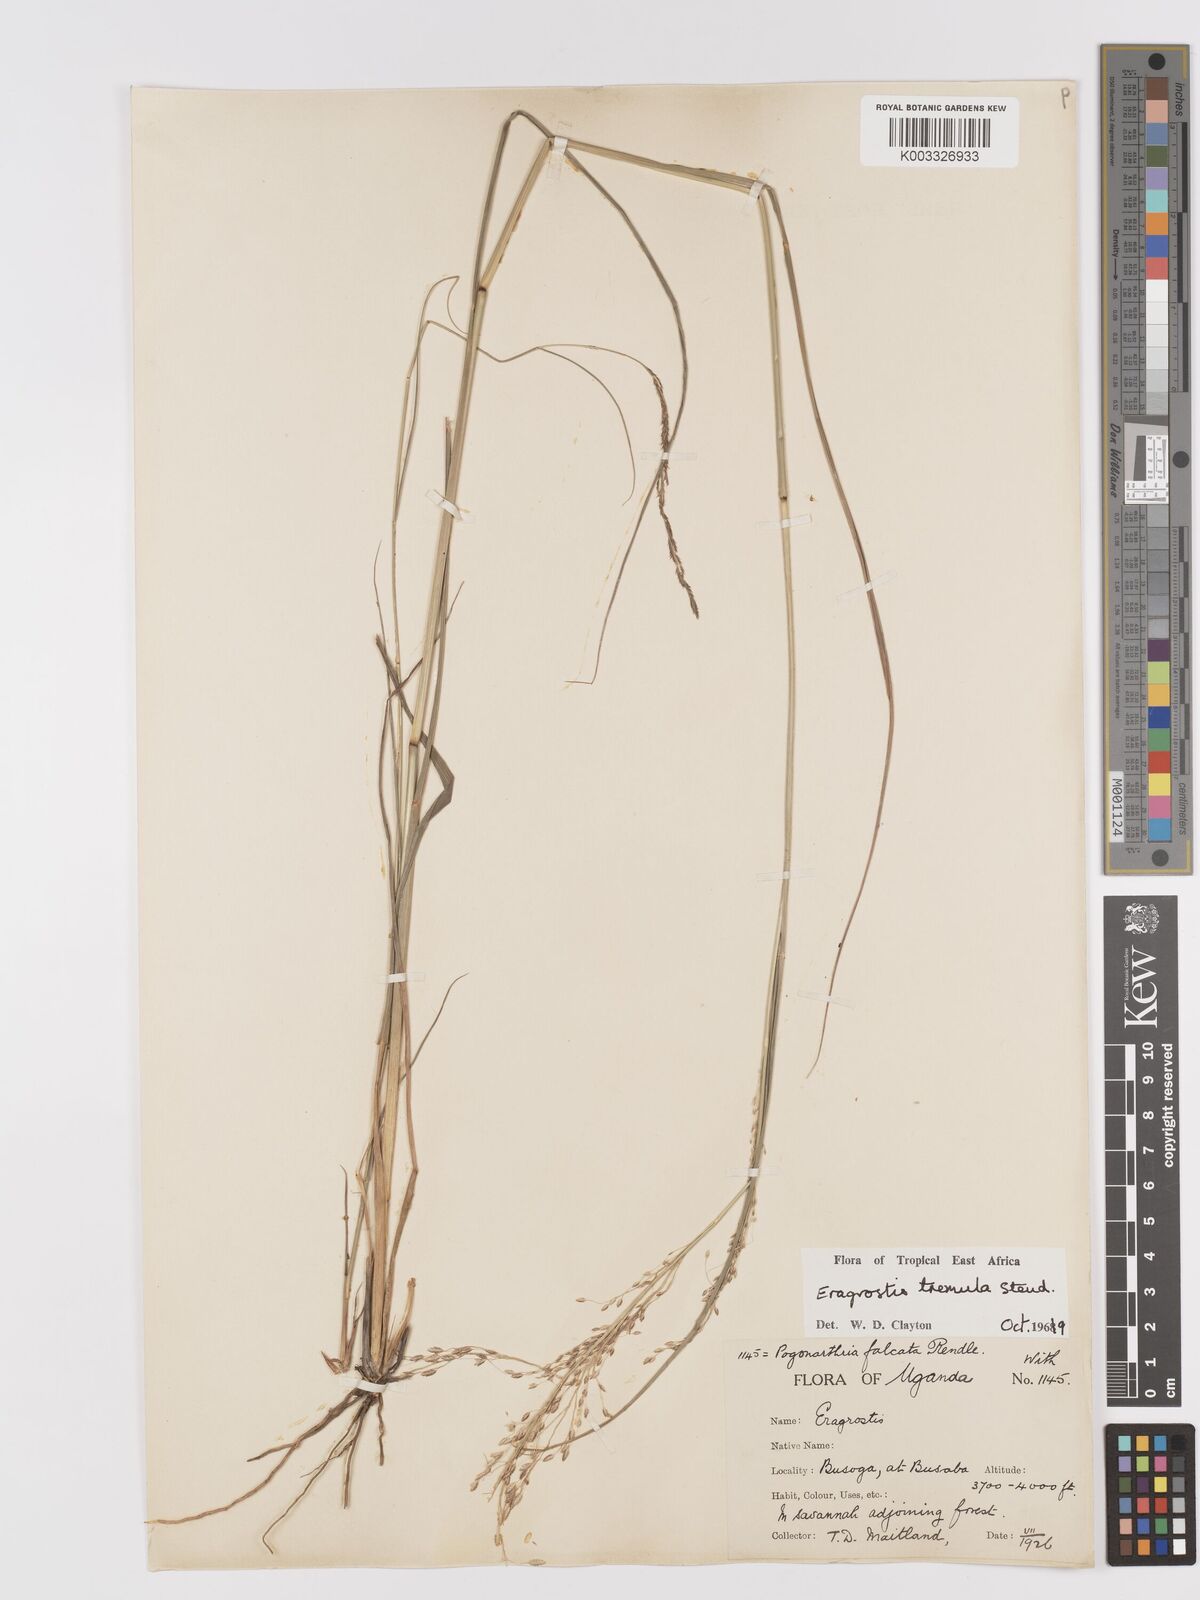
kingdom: Plantae
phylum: Tracheophyta
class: Liliopsida
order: Poales
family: Poaceae
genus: Eragrostis
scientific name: Eragrostis tremula
